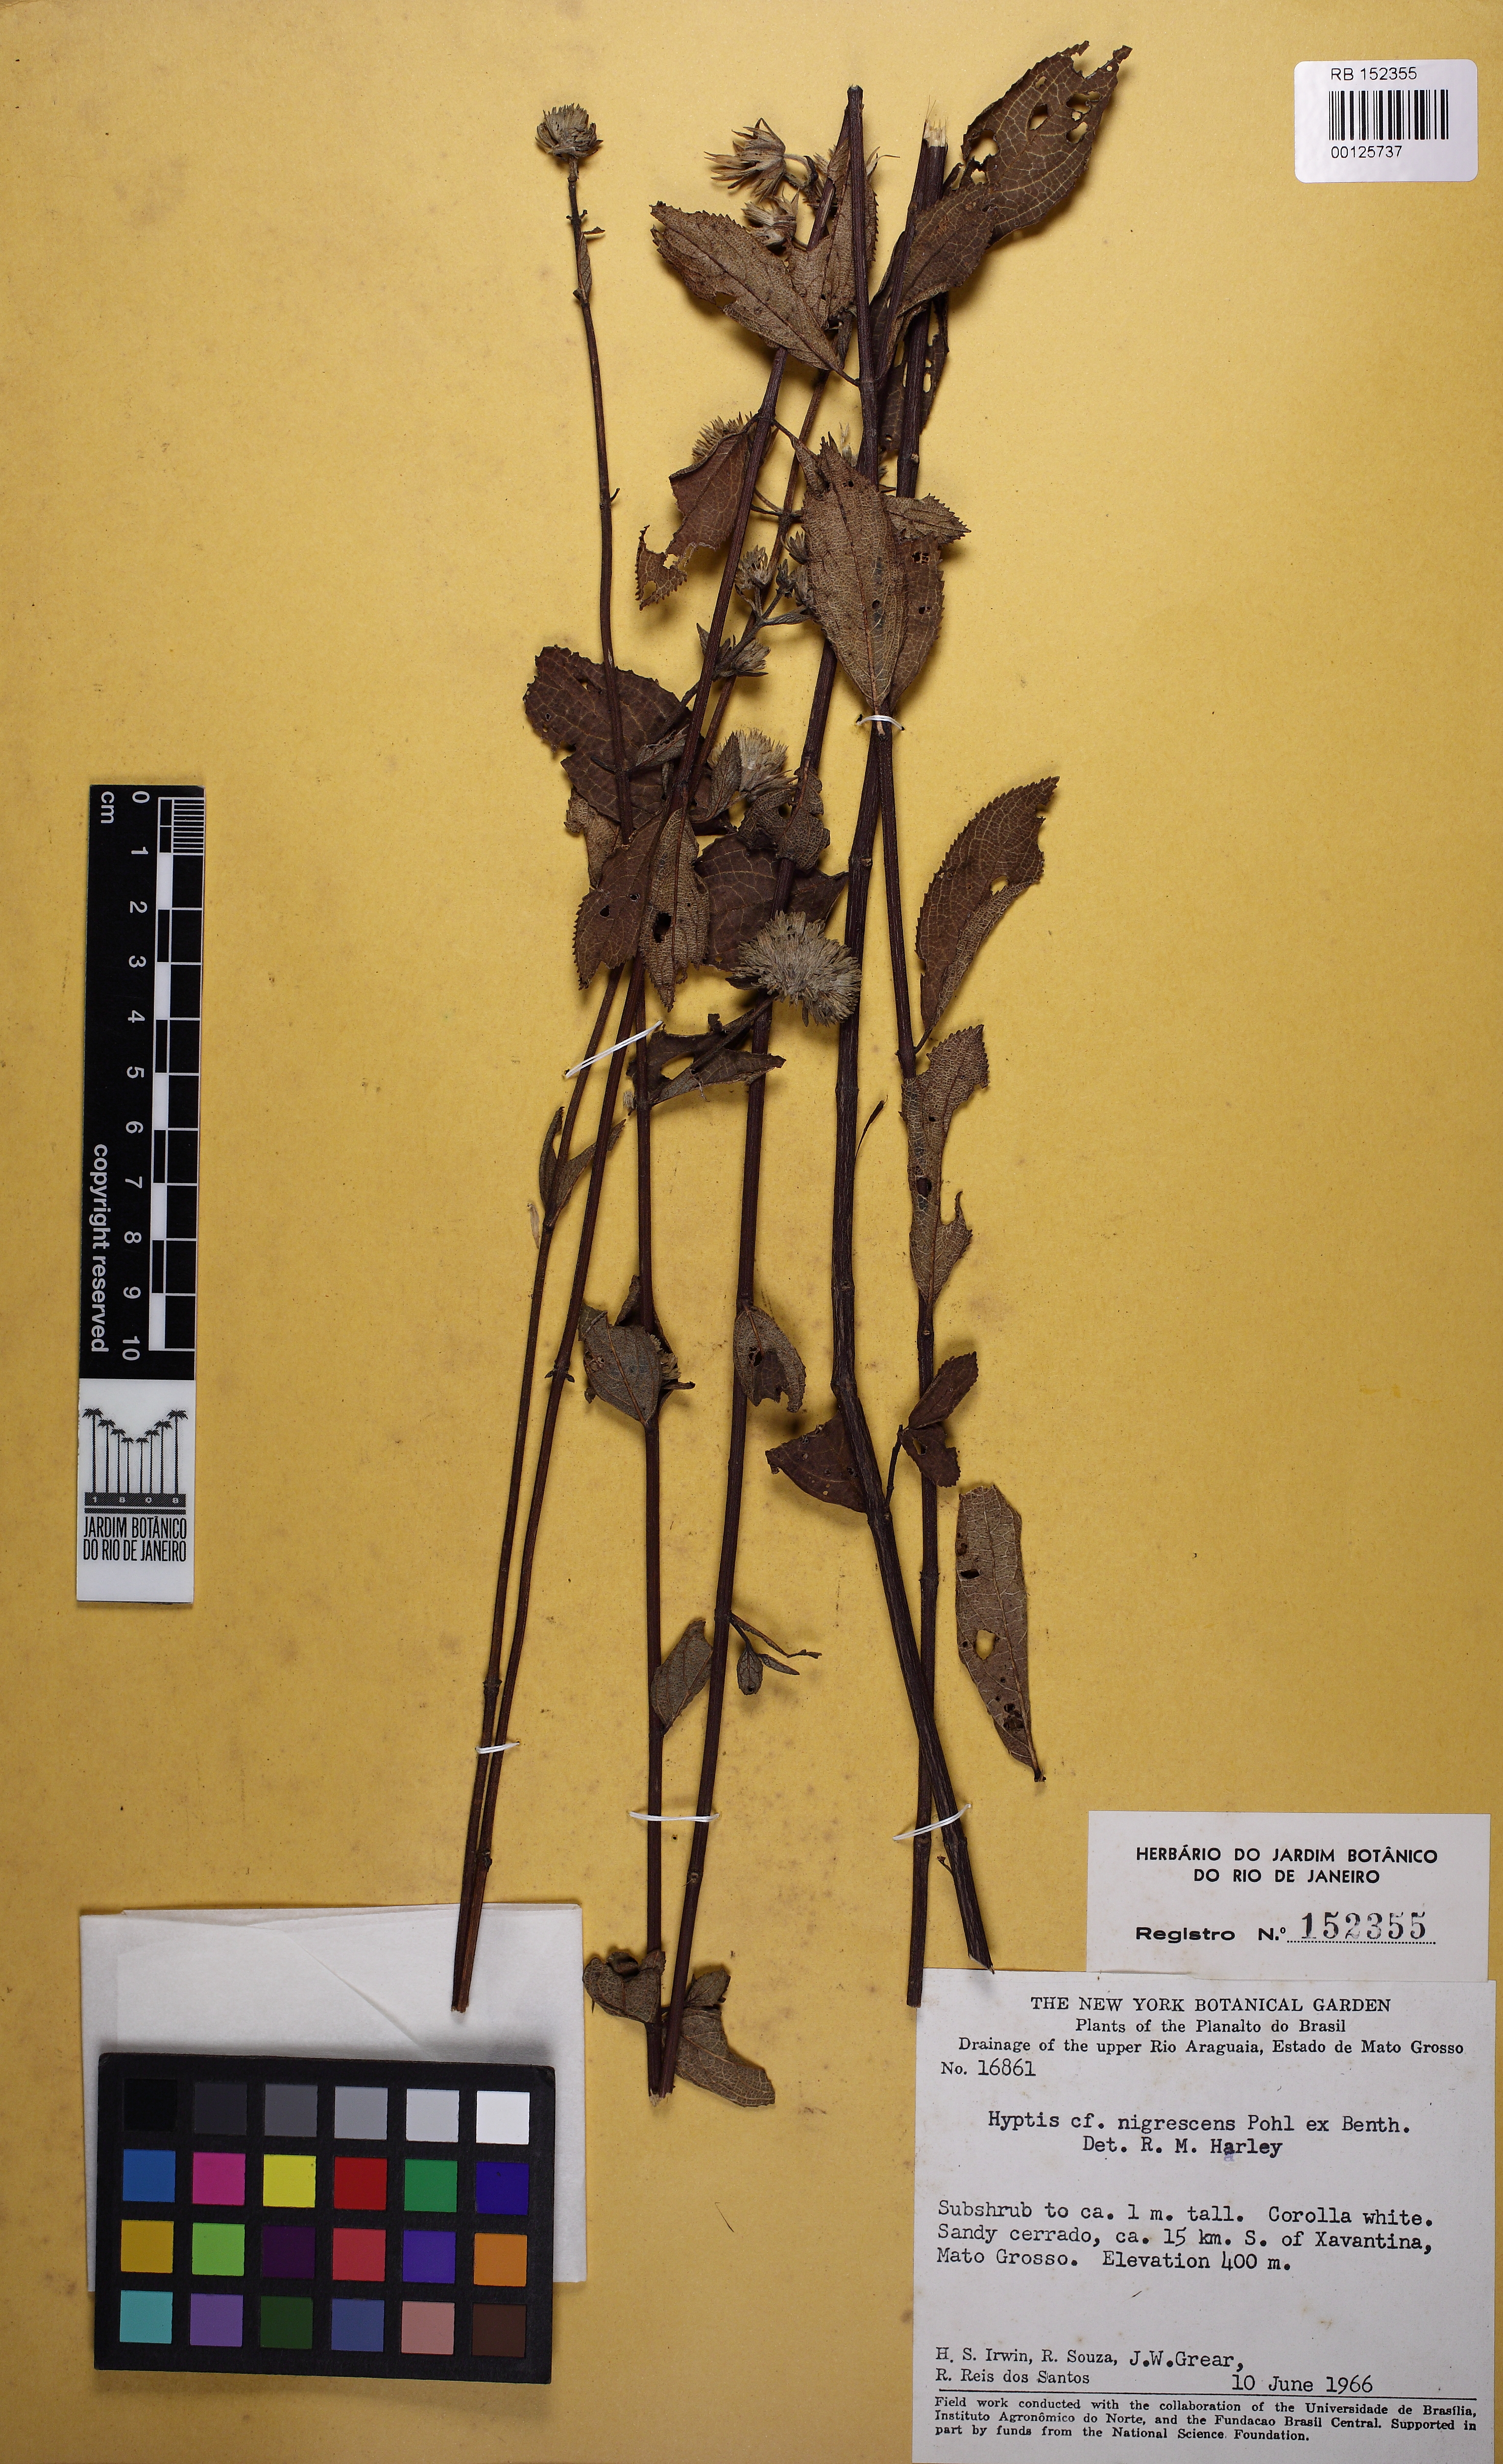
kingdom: Plantae
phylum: Tracheophyta
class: Magnoliopsida
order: Lamiales
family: Lamiaceae
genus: Hyptis
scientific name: Hyptis nigrescens
